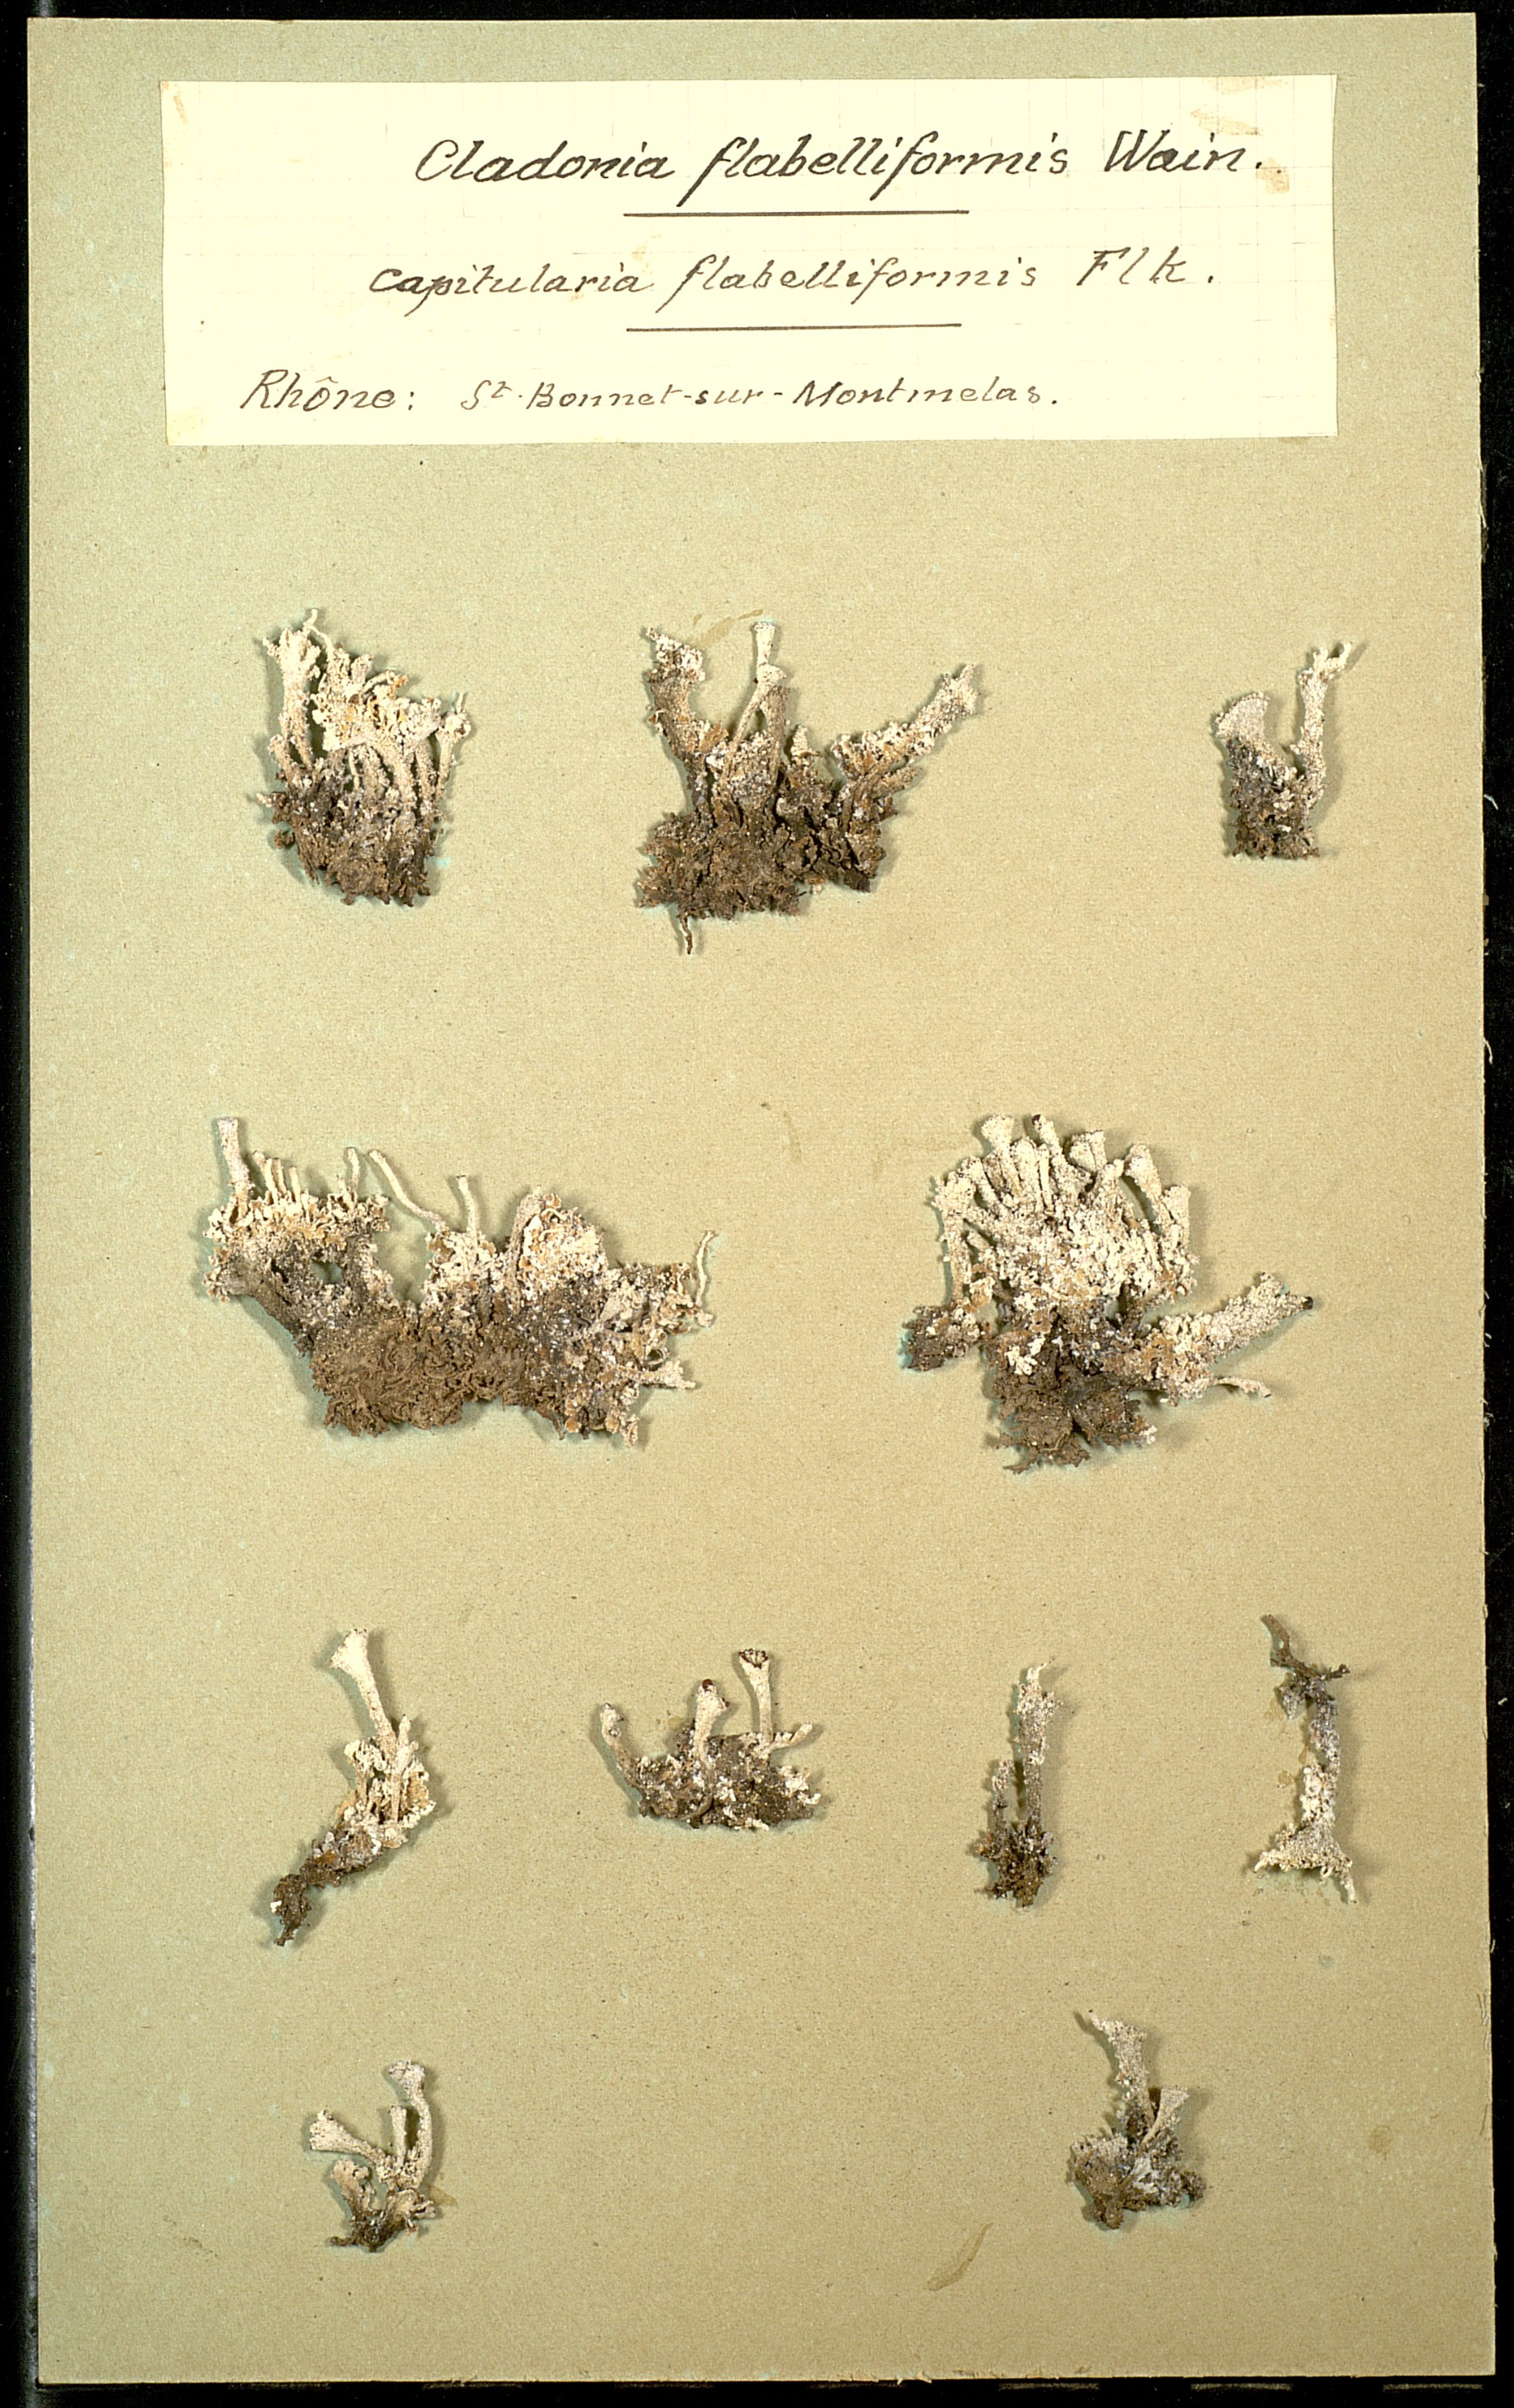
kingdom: Fungi
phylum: Ascomycota
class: Lecanoromycetes
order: Lecanorales
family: Cladoniaceae
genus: Cladonia
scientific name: Cladonia polydactyla
